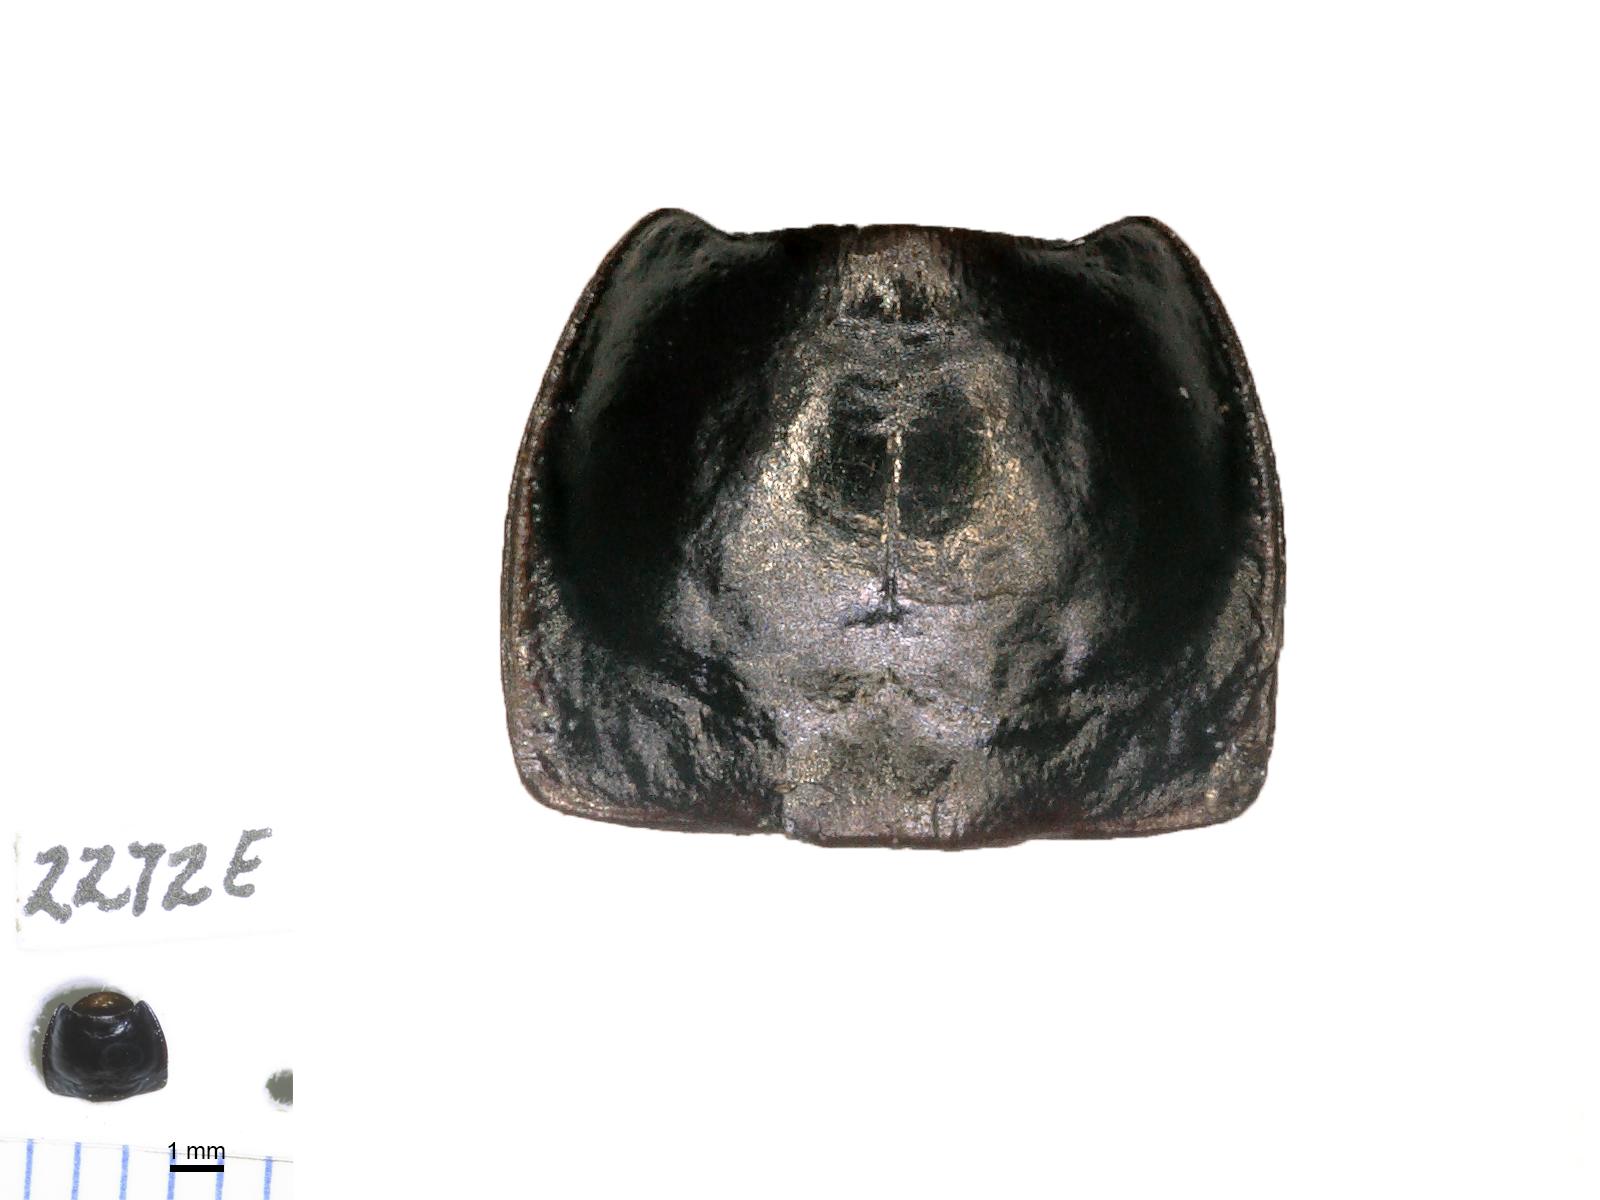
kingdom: Animalia
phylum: Arthropoda
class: Insecta
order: Coleoptera
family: Carabidae
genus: Calathus
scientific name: Calathus ruficollis
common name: Red-collared harp ground beetle
